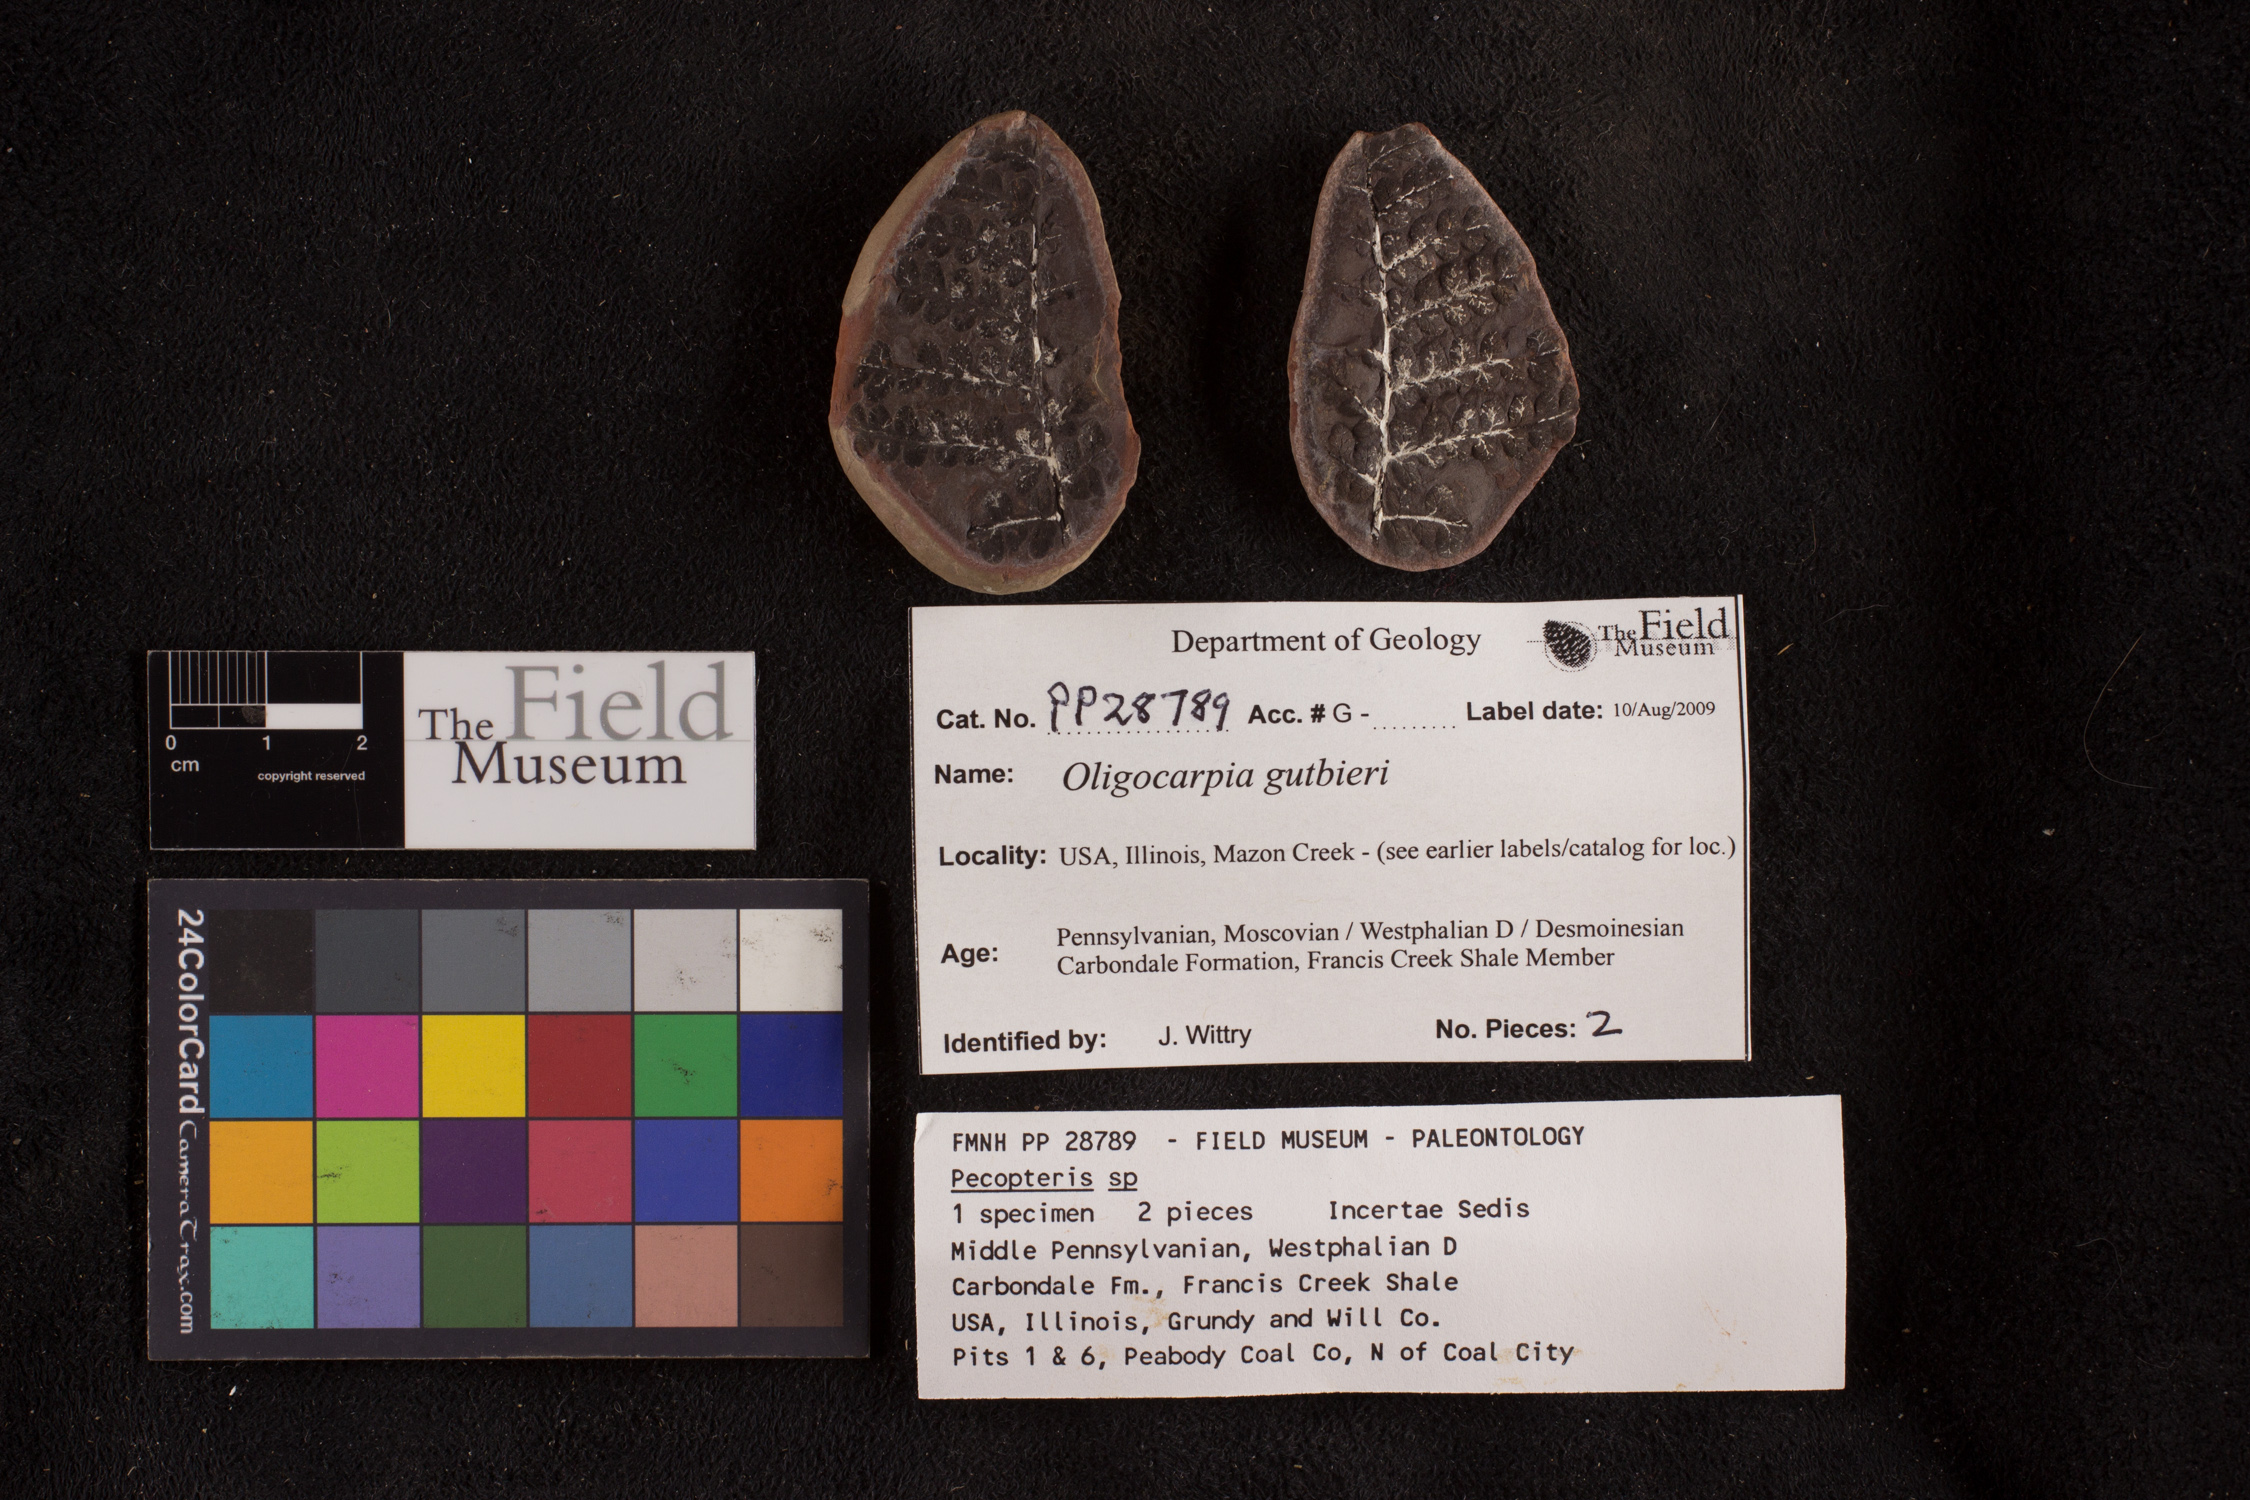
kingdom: Plantae
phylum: Tracheophyta
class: Polypodiopsida
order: Gleicheniales
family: Gleicheniaceae
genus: Oligocarpia
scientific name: Oligocarpia gutbieri
